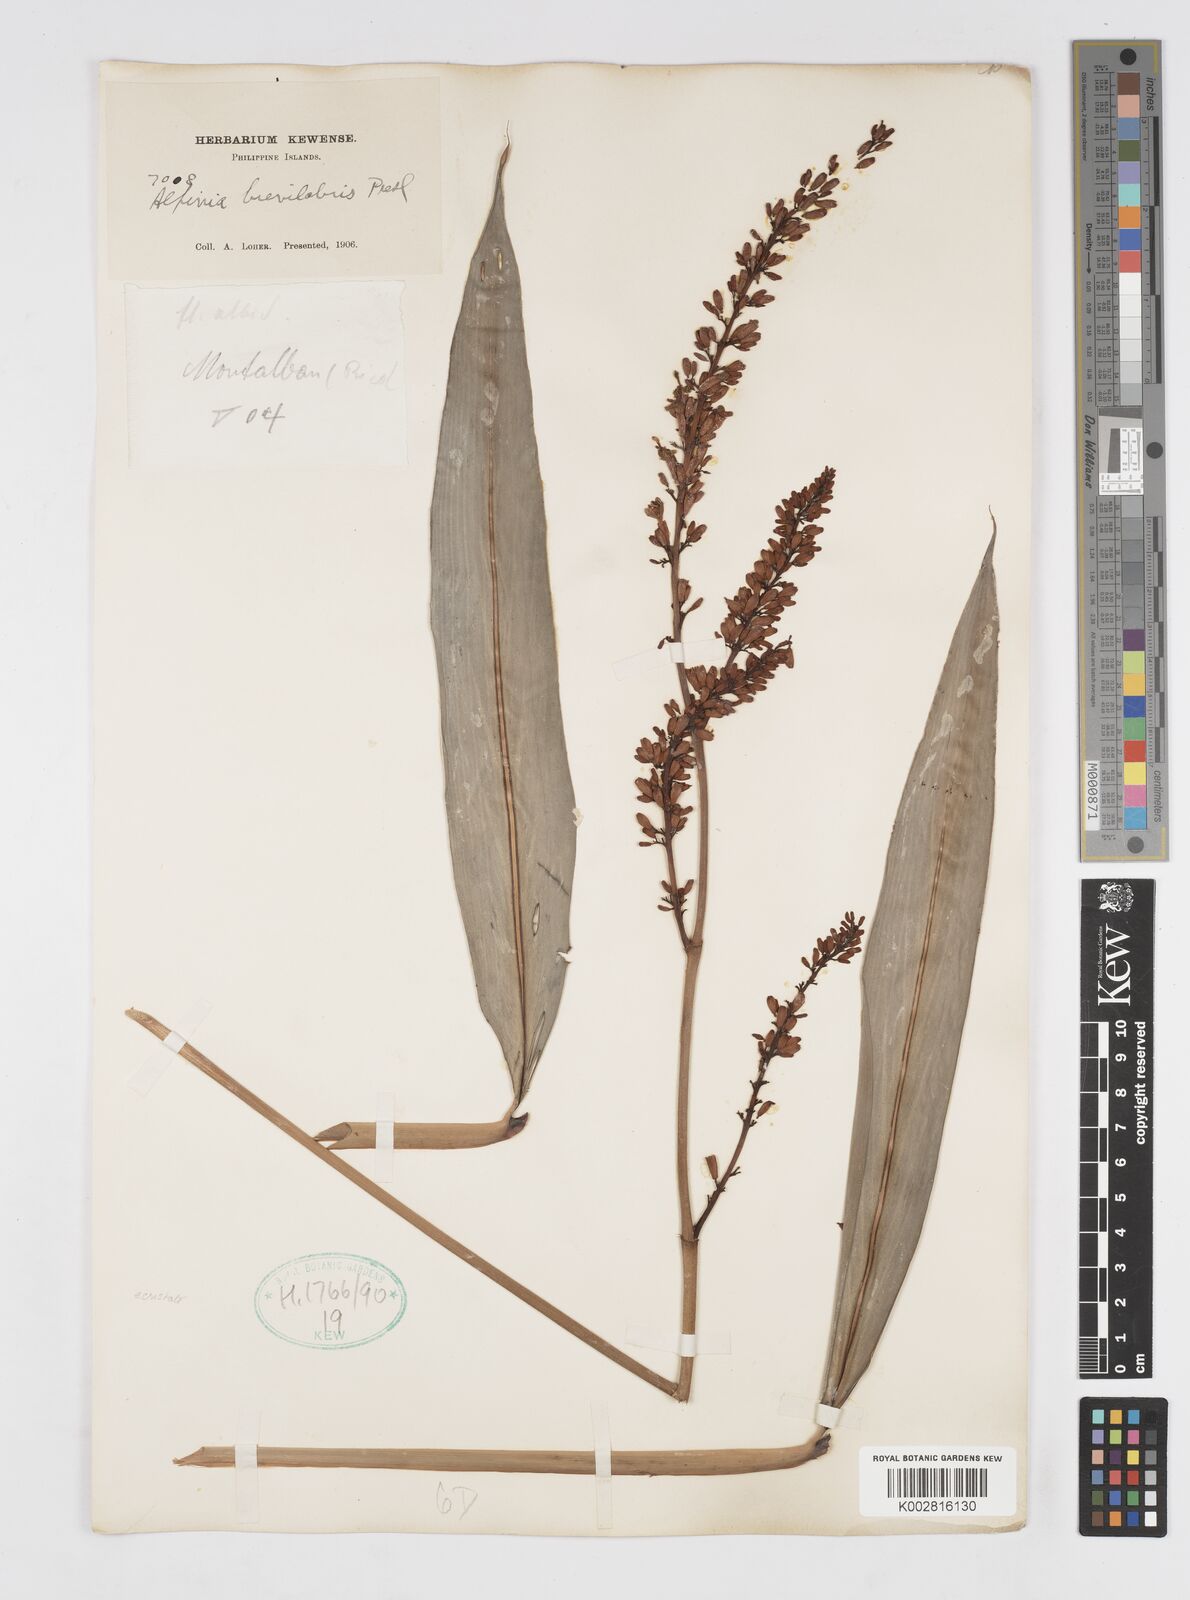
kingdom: Plantae
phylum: Tracheophyta
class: Liliopsida
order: Zingiberales
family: Zingiberaceae
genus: Alpinia
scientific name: Alpinia brevilabris
